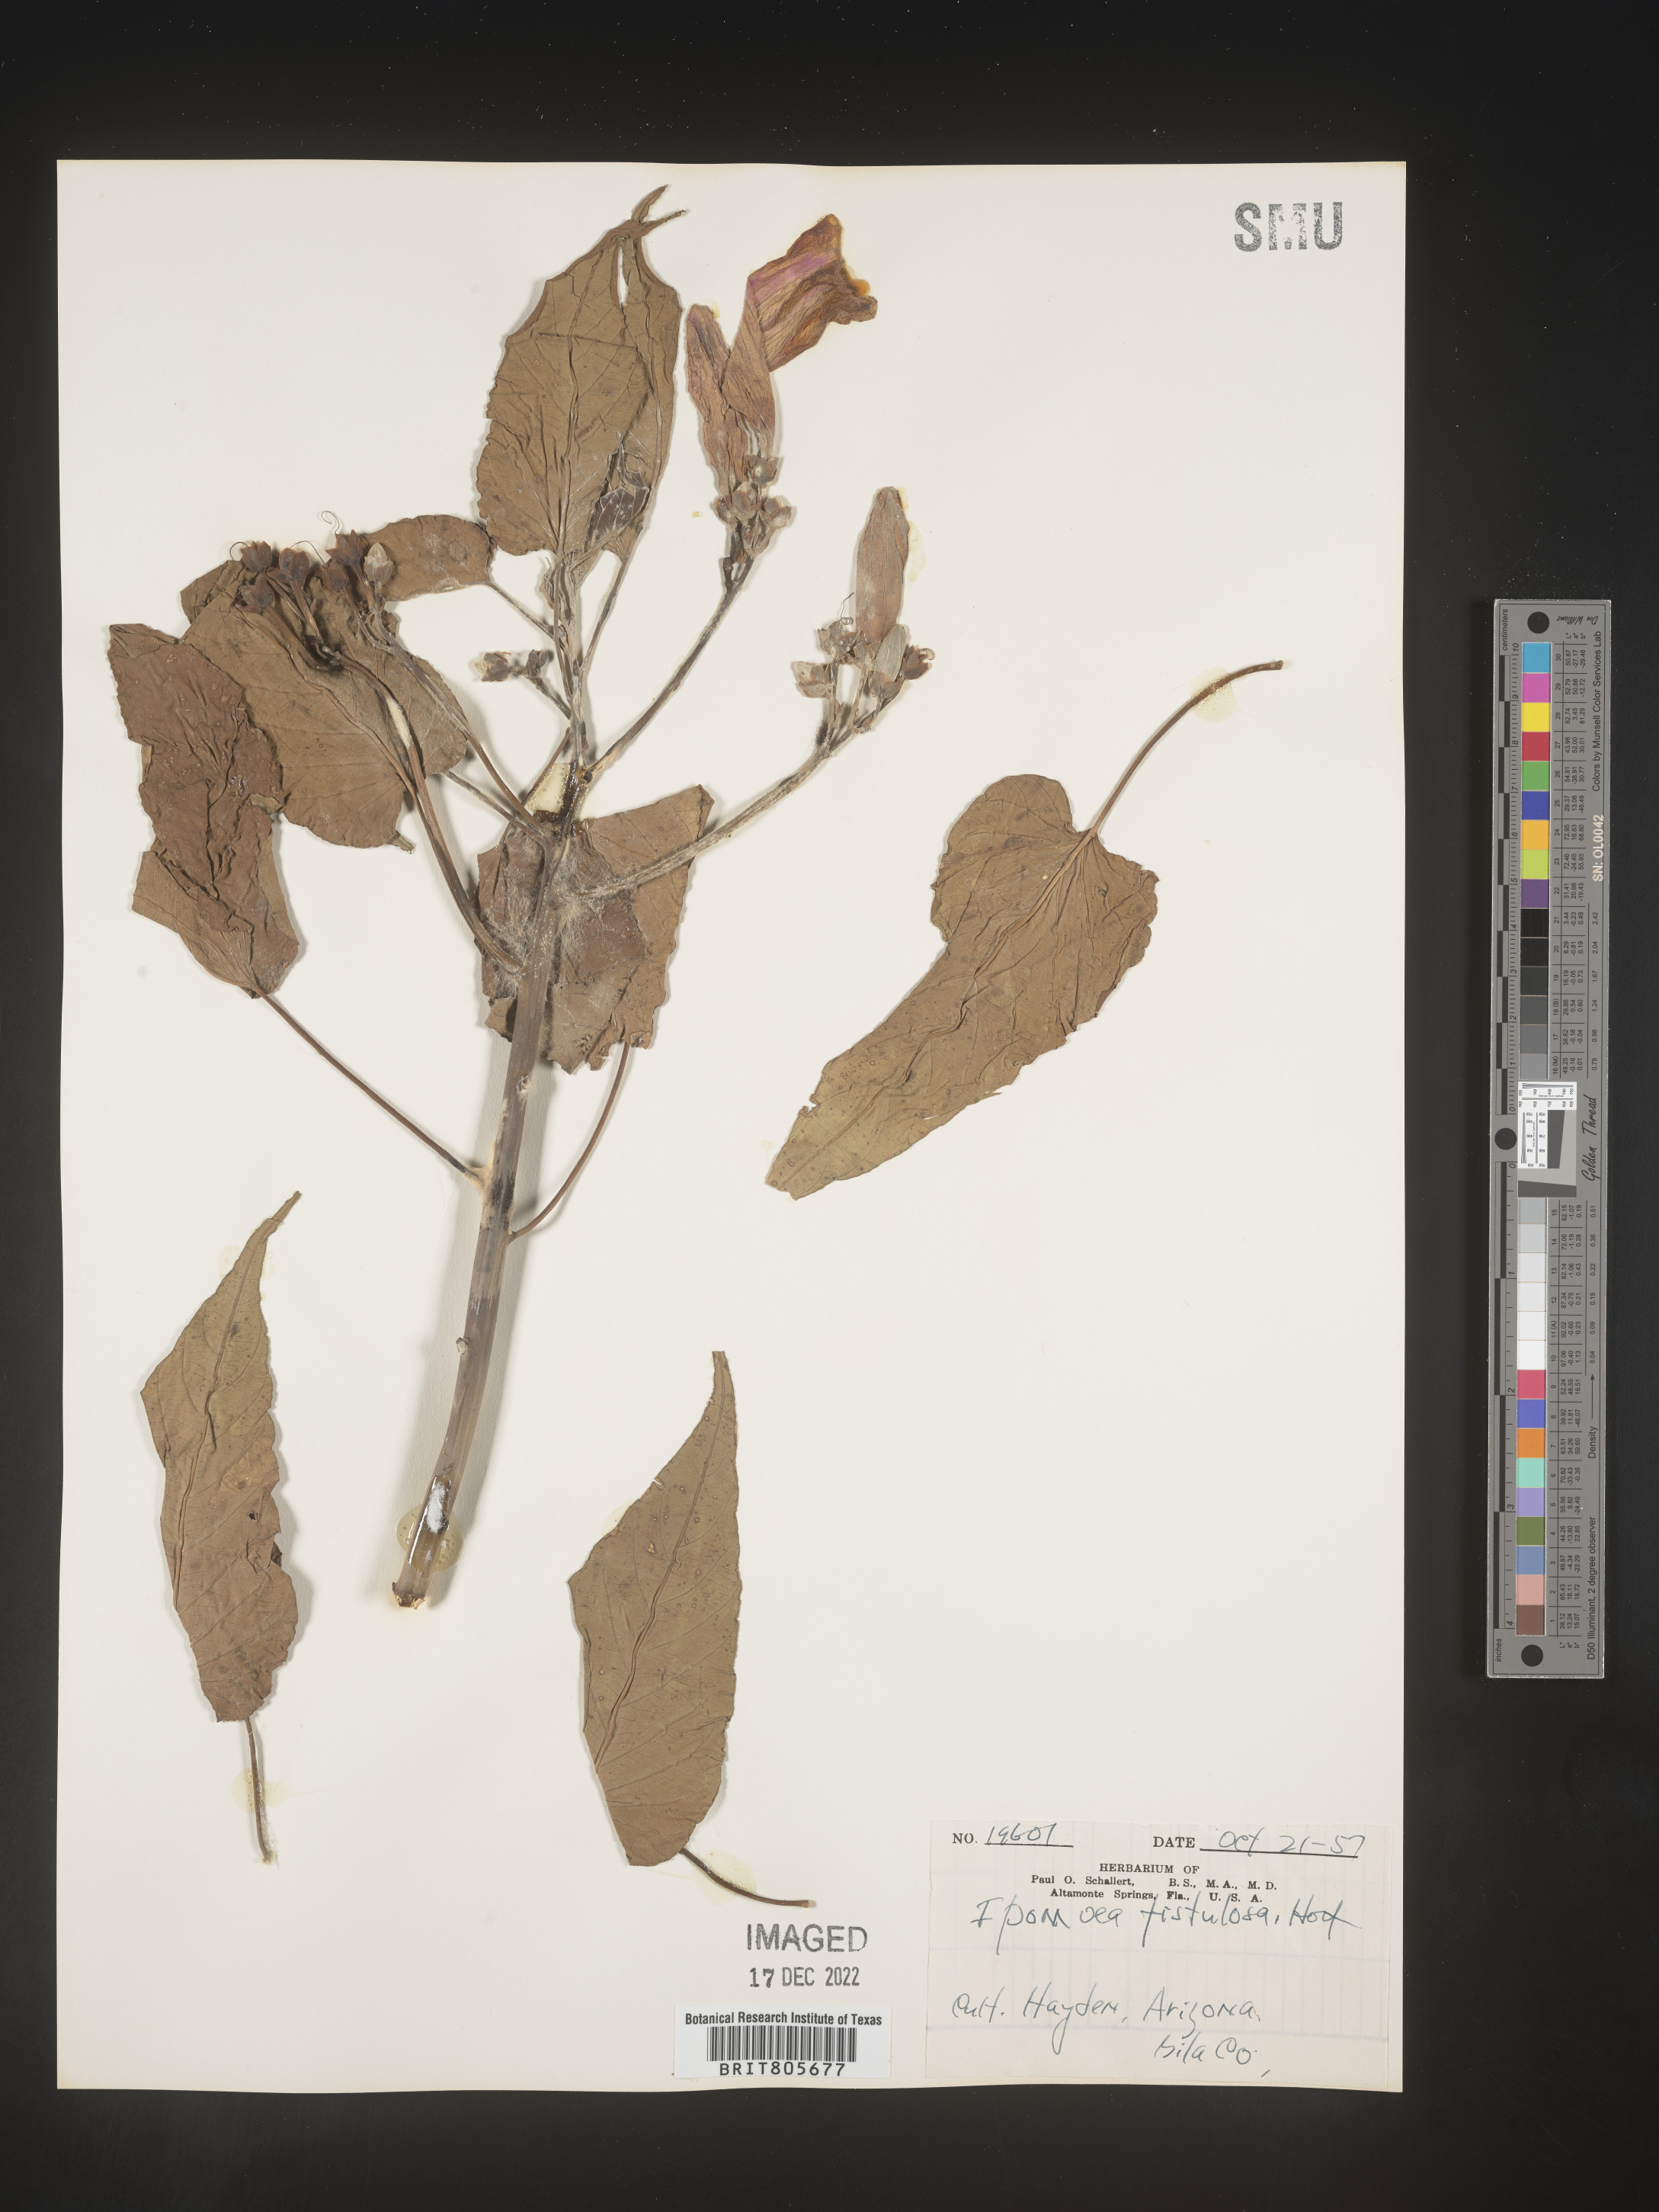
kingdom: Plantae
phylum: Tracheophyta
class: Magnoliopsida
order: Solanales
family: Convolvulaceae
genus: Ipomoea
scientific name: Ipomoea carnea
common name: Morning-glory
